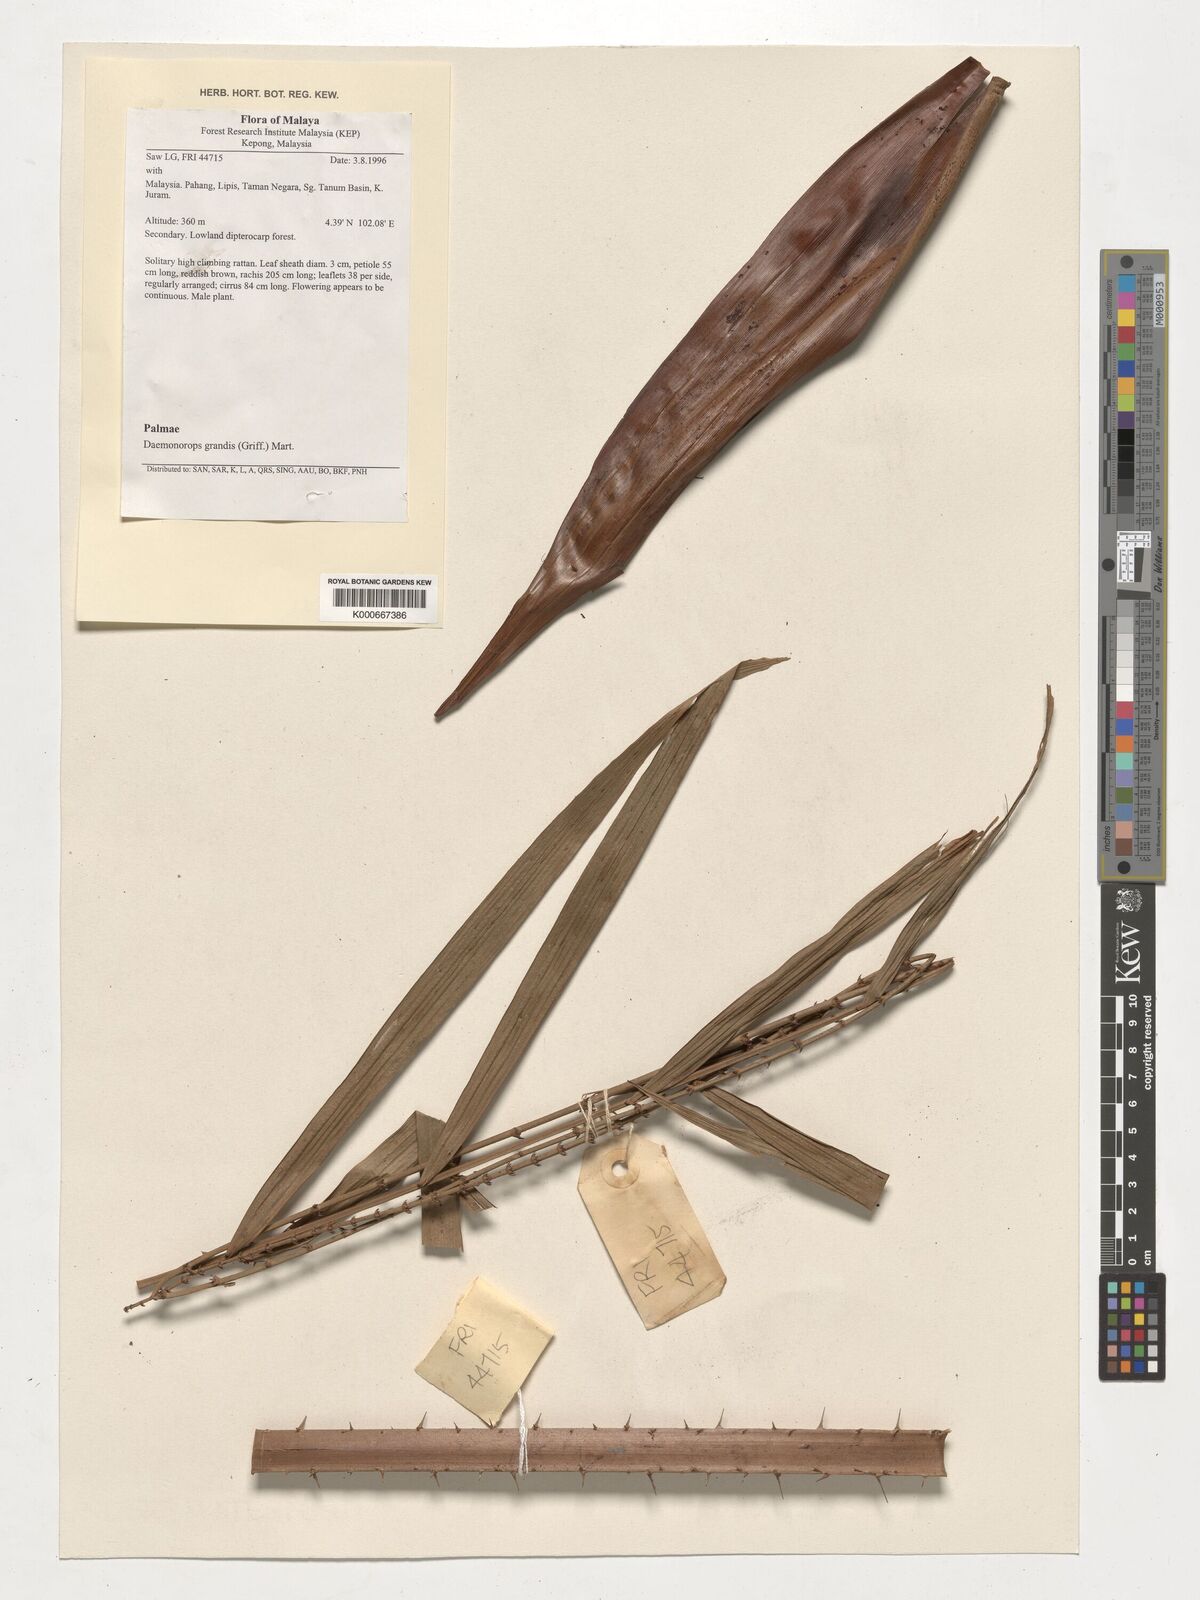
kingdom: Plantae
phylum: Tracheophyta
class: Liliopsida
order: Arecales
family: Arecaceae
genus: Calamus
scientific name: Calamus melanochaetes
